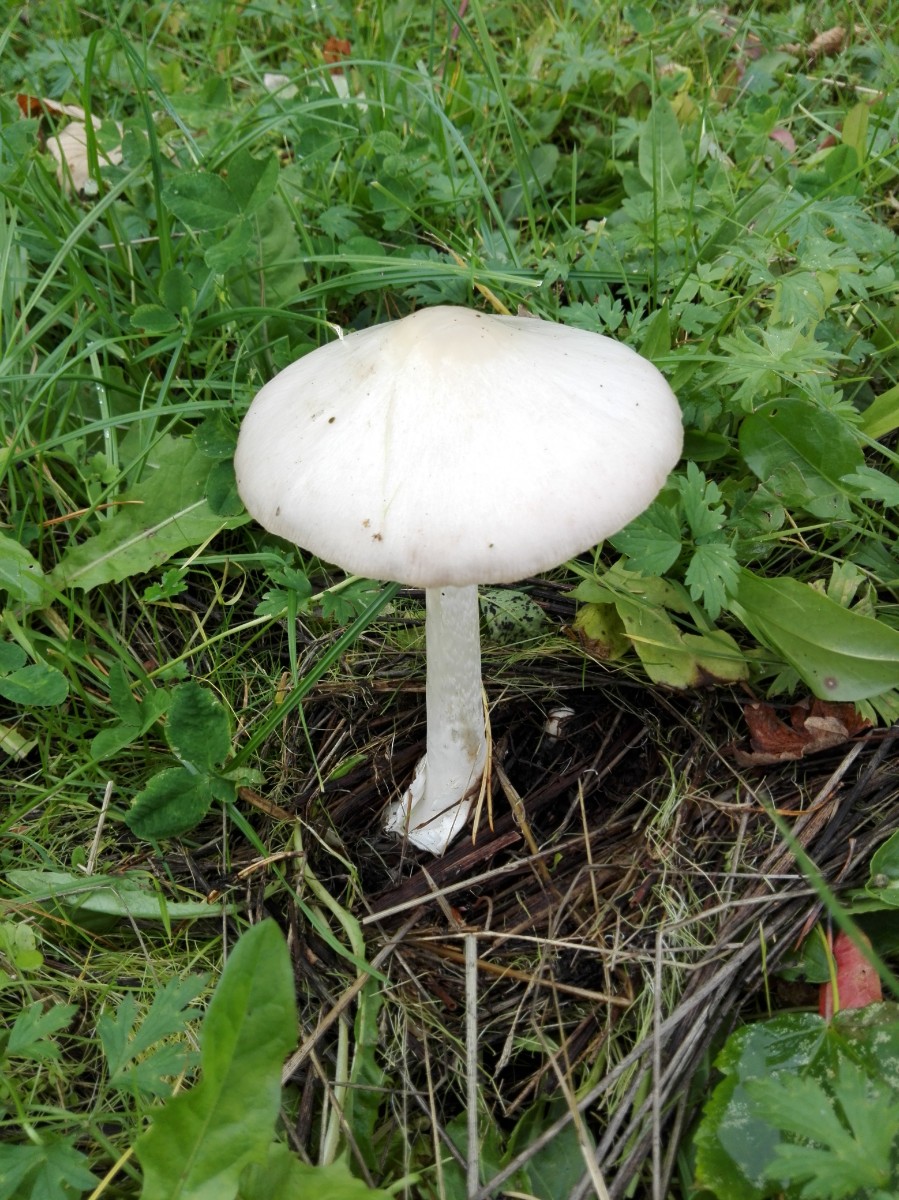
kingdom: Fungi
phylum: Basidiomycota
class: Agaricomycetes
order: Agaricales
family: Pluteaceae
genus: Volvopluteus
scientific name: Volvopluteus gloiocephalus
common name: høj posesvamp
